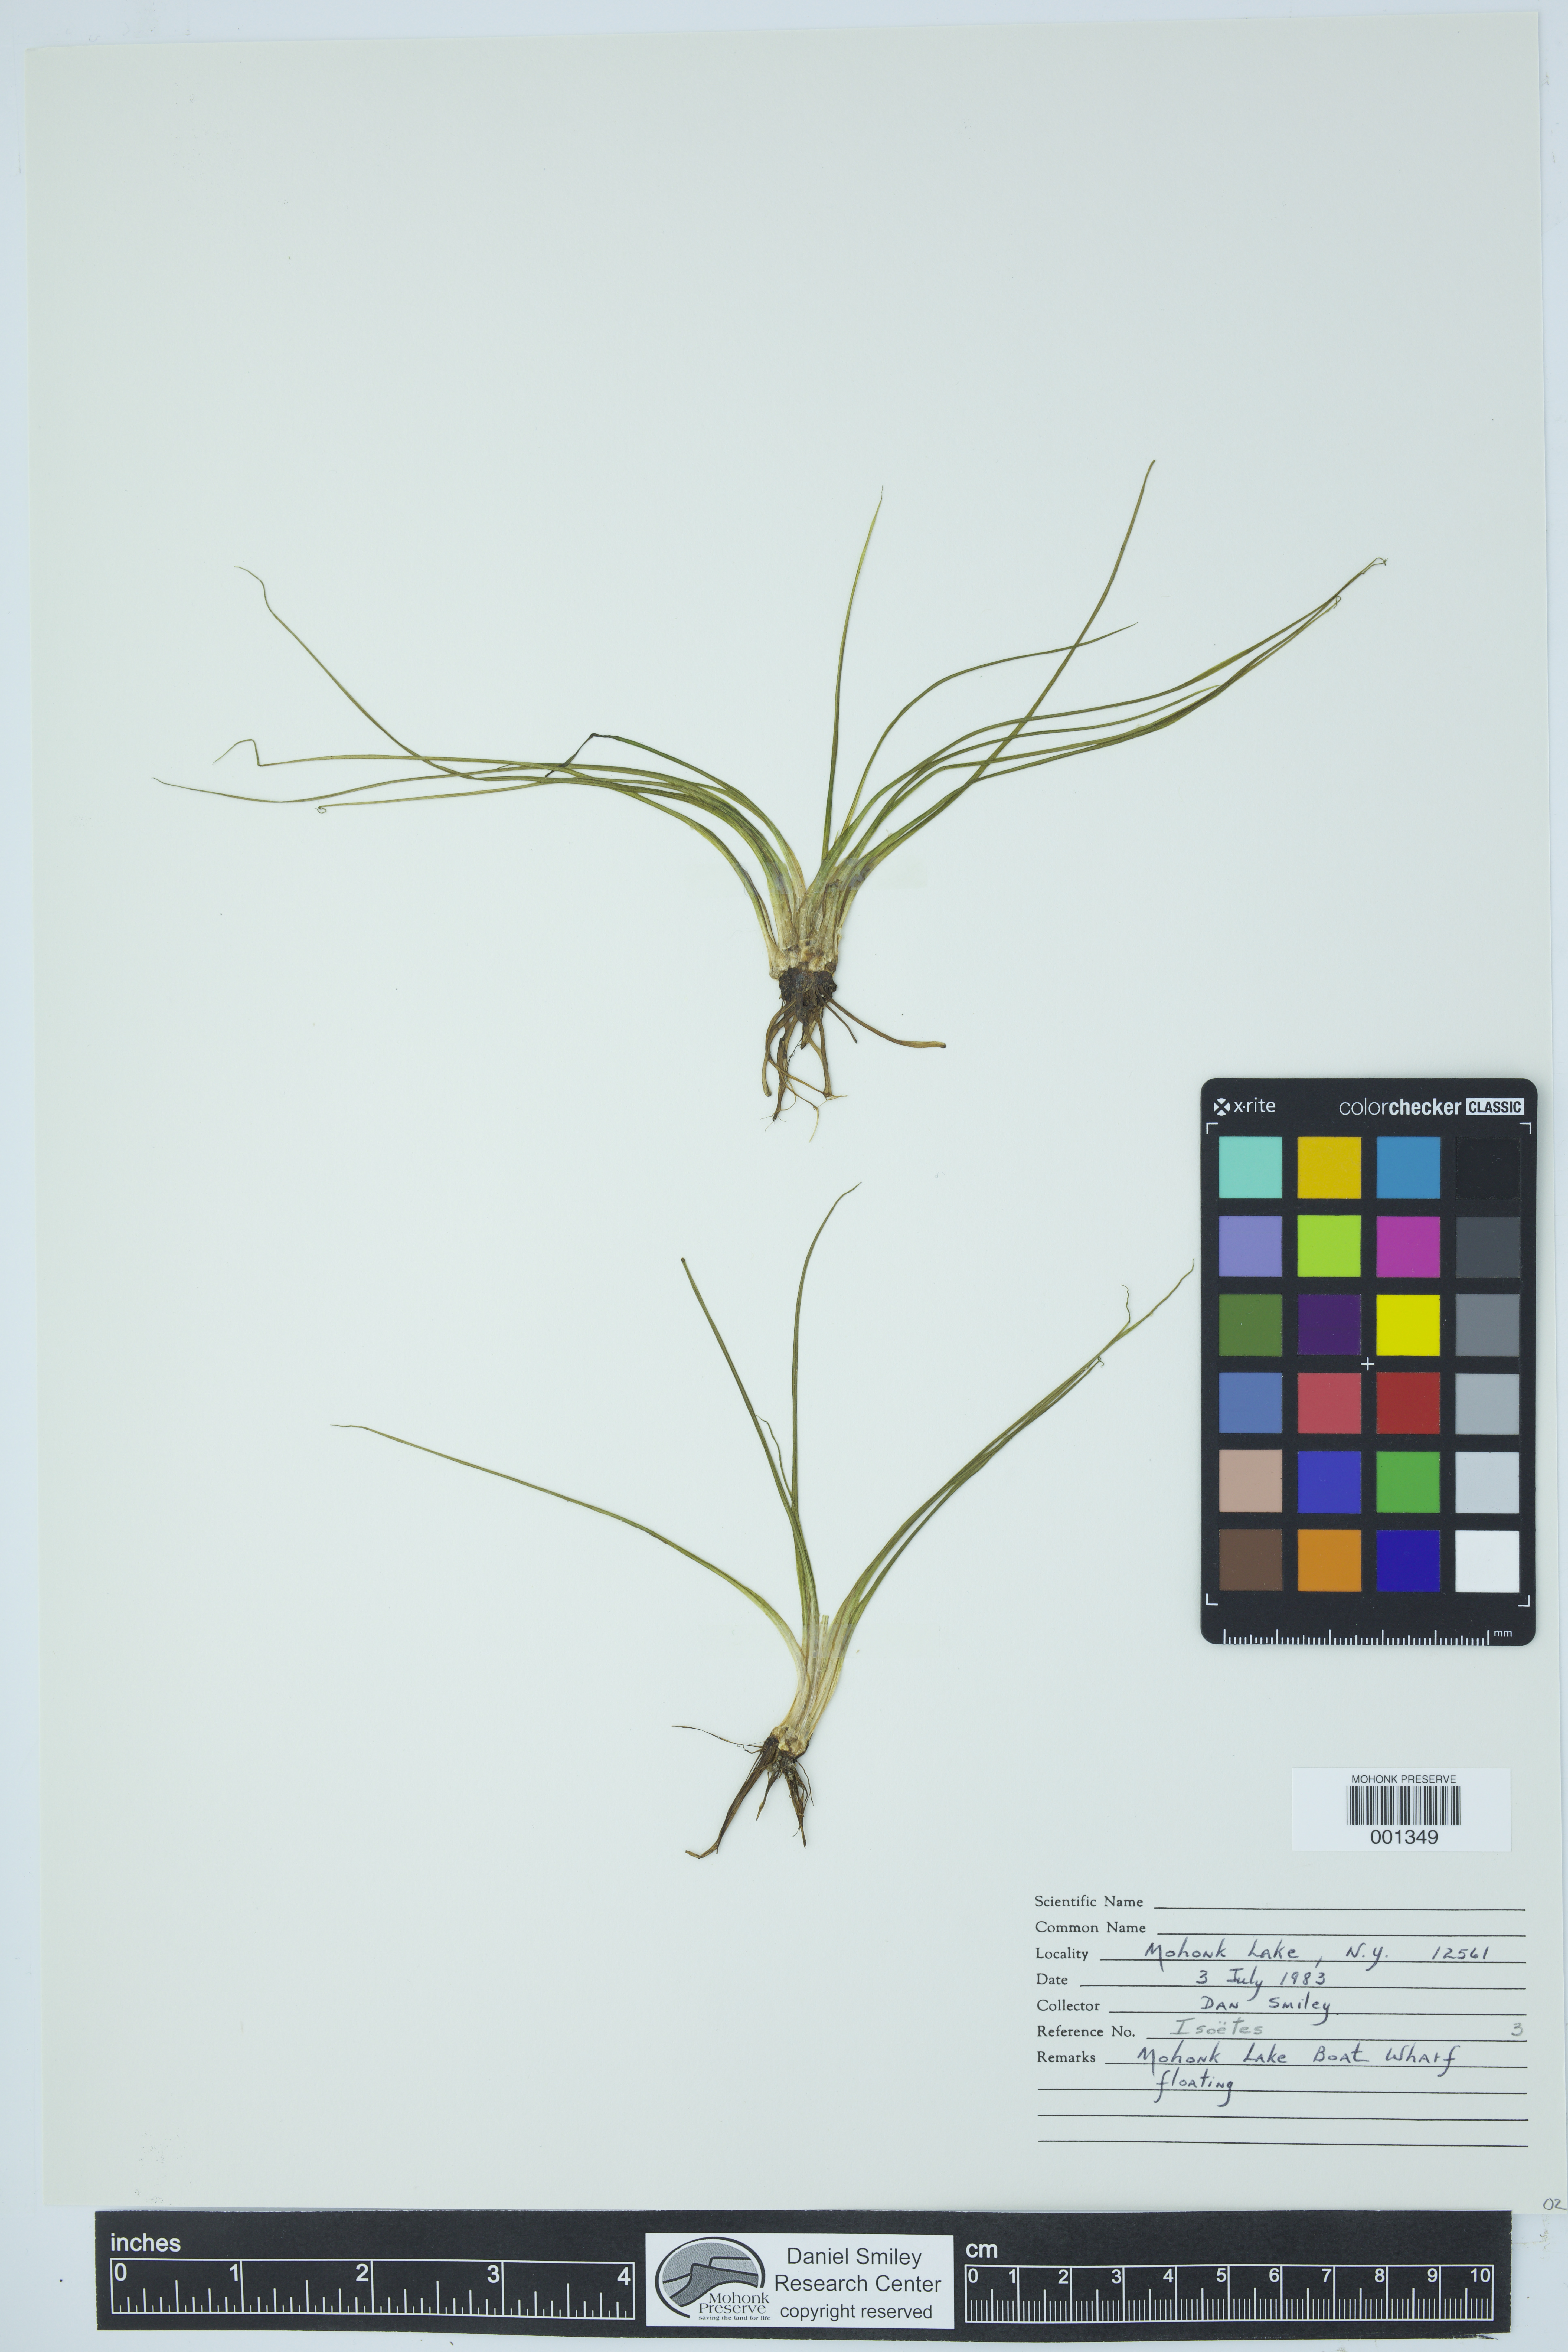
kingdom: Plantae
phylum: Tracheophyta
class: Lycopodiopsida
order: Isoetales
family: Isoetaceae
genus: Isoetes
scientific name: Isoetes
